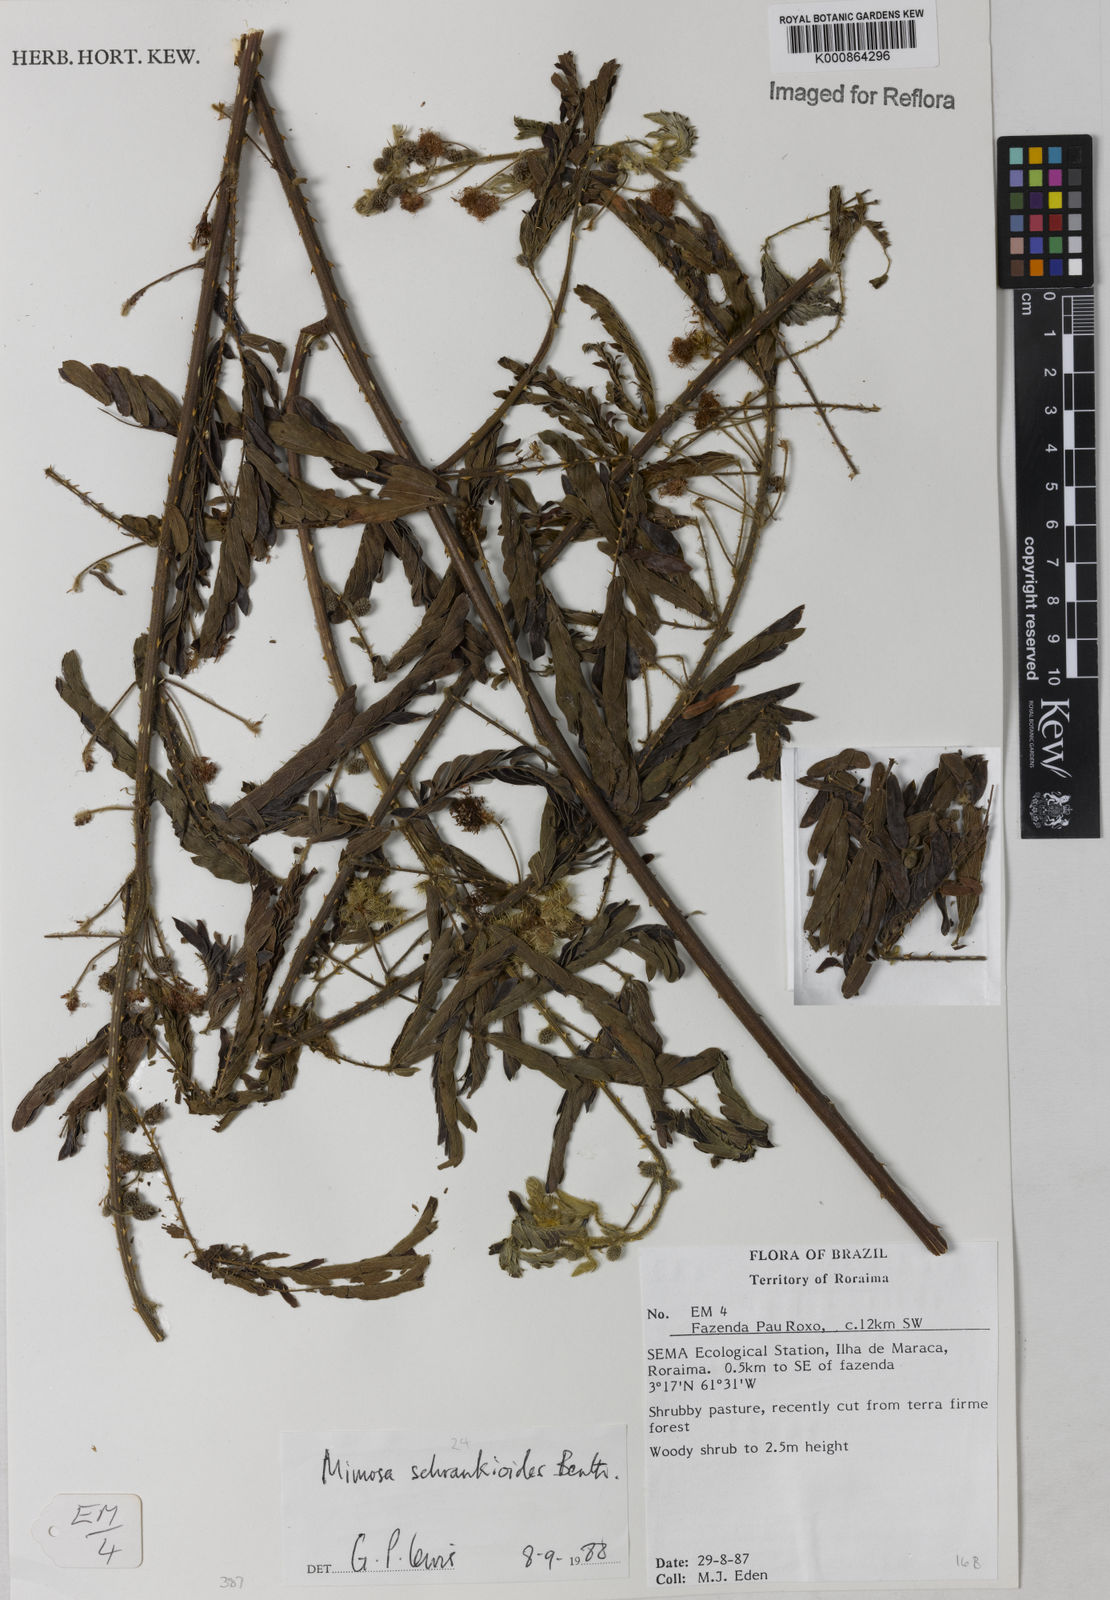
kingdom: Plantae
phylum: Tracheophyta
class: Magnoliopsida
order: Fabales
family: Fabaceae
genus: Mimosa
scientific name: Mimosa schrankioides
